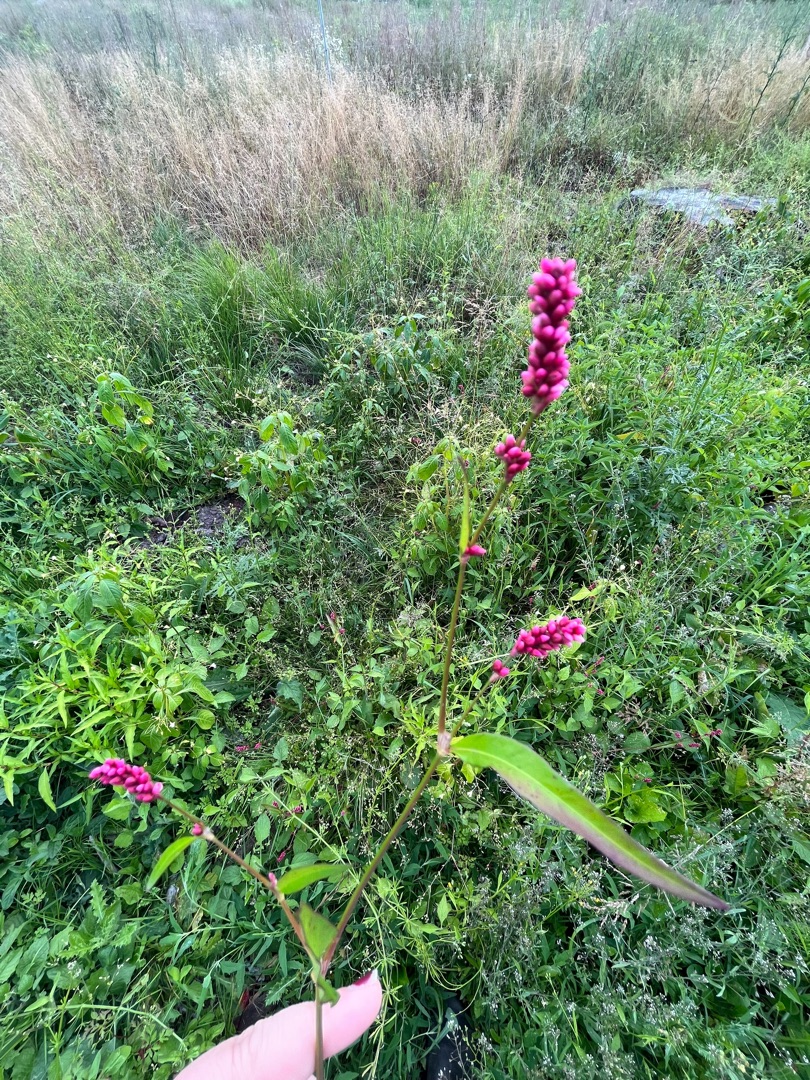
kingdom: Plantae
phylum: Tracheophyta
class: Magnoliopsida
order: Caryophyllales
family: Polygonaceae
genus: Persicaria
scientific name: Persicaria maculosa
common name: Fersken-pileurt
